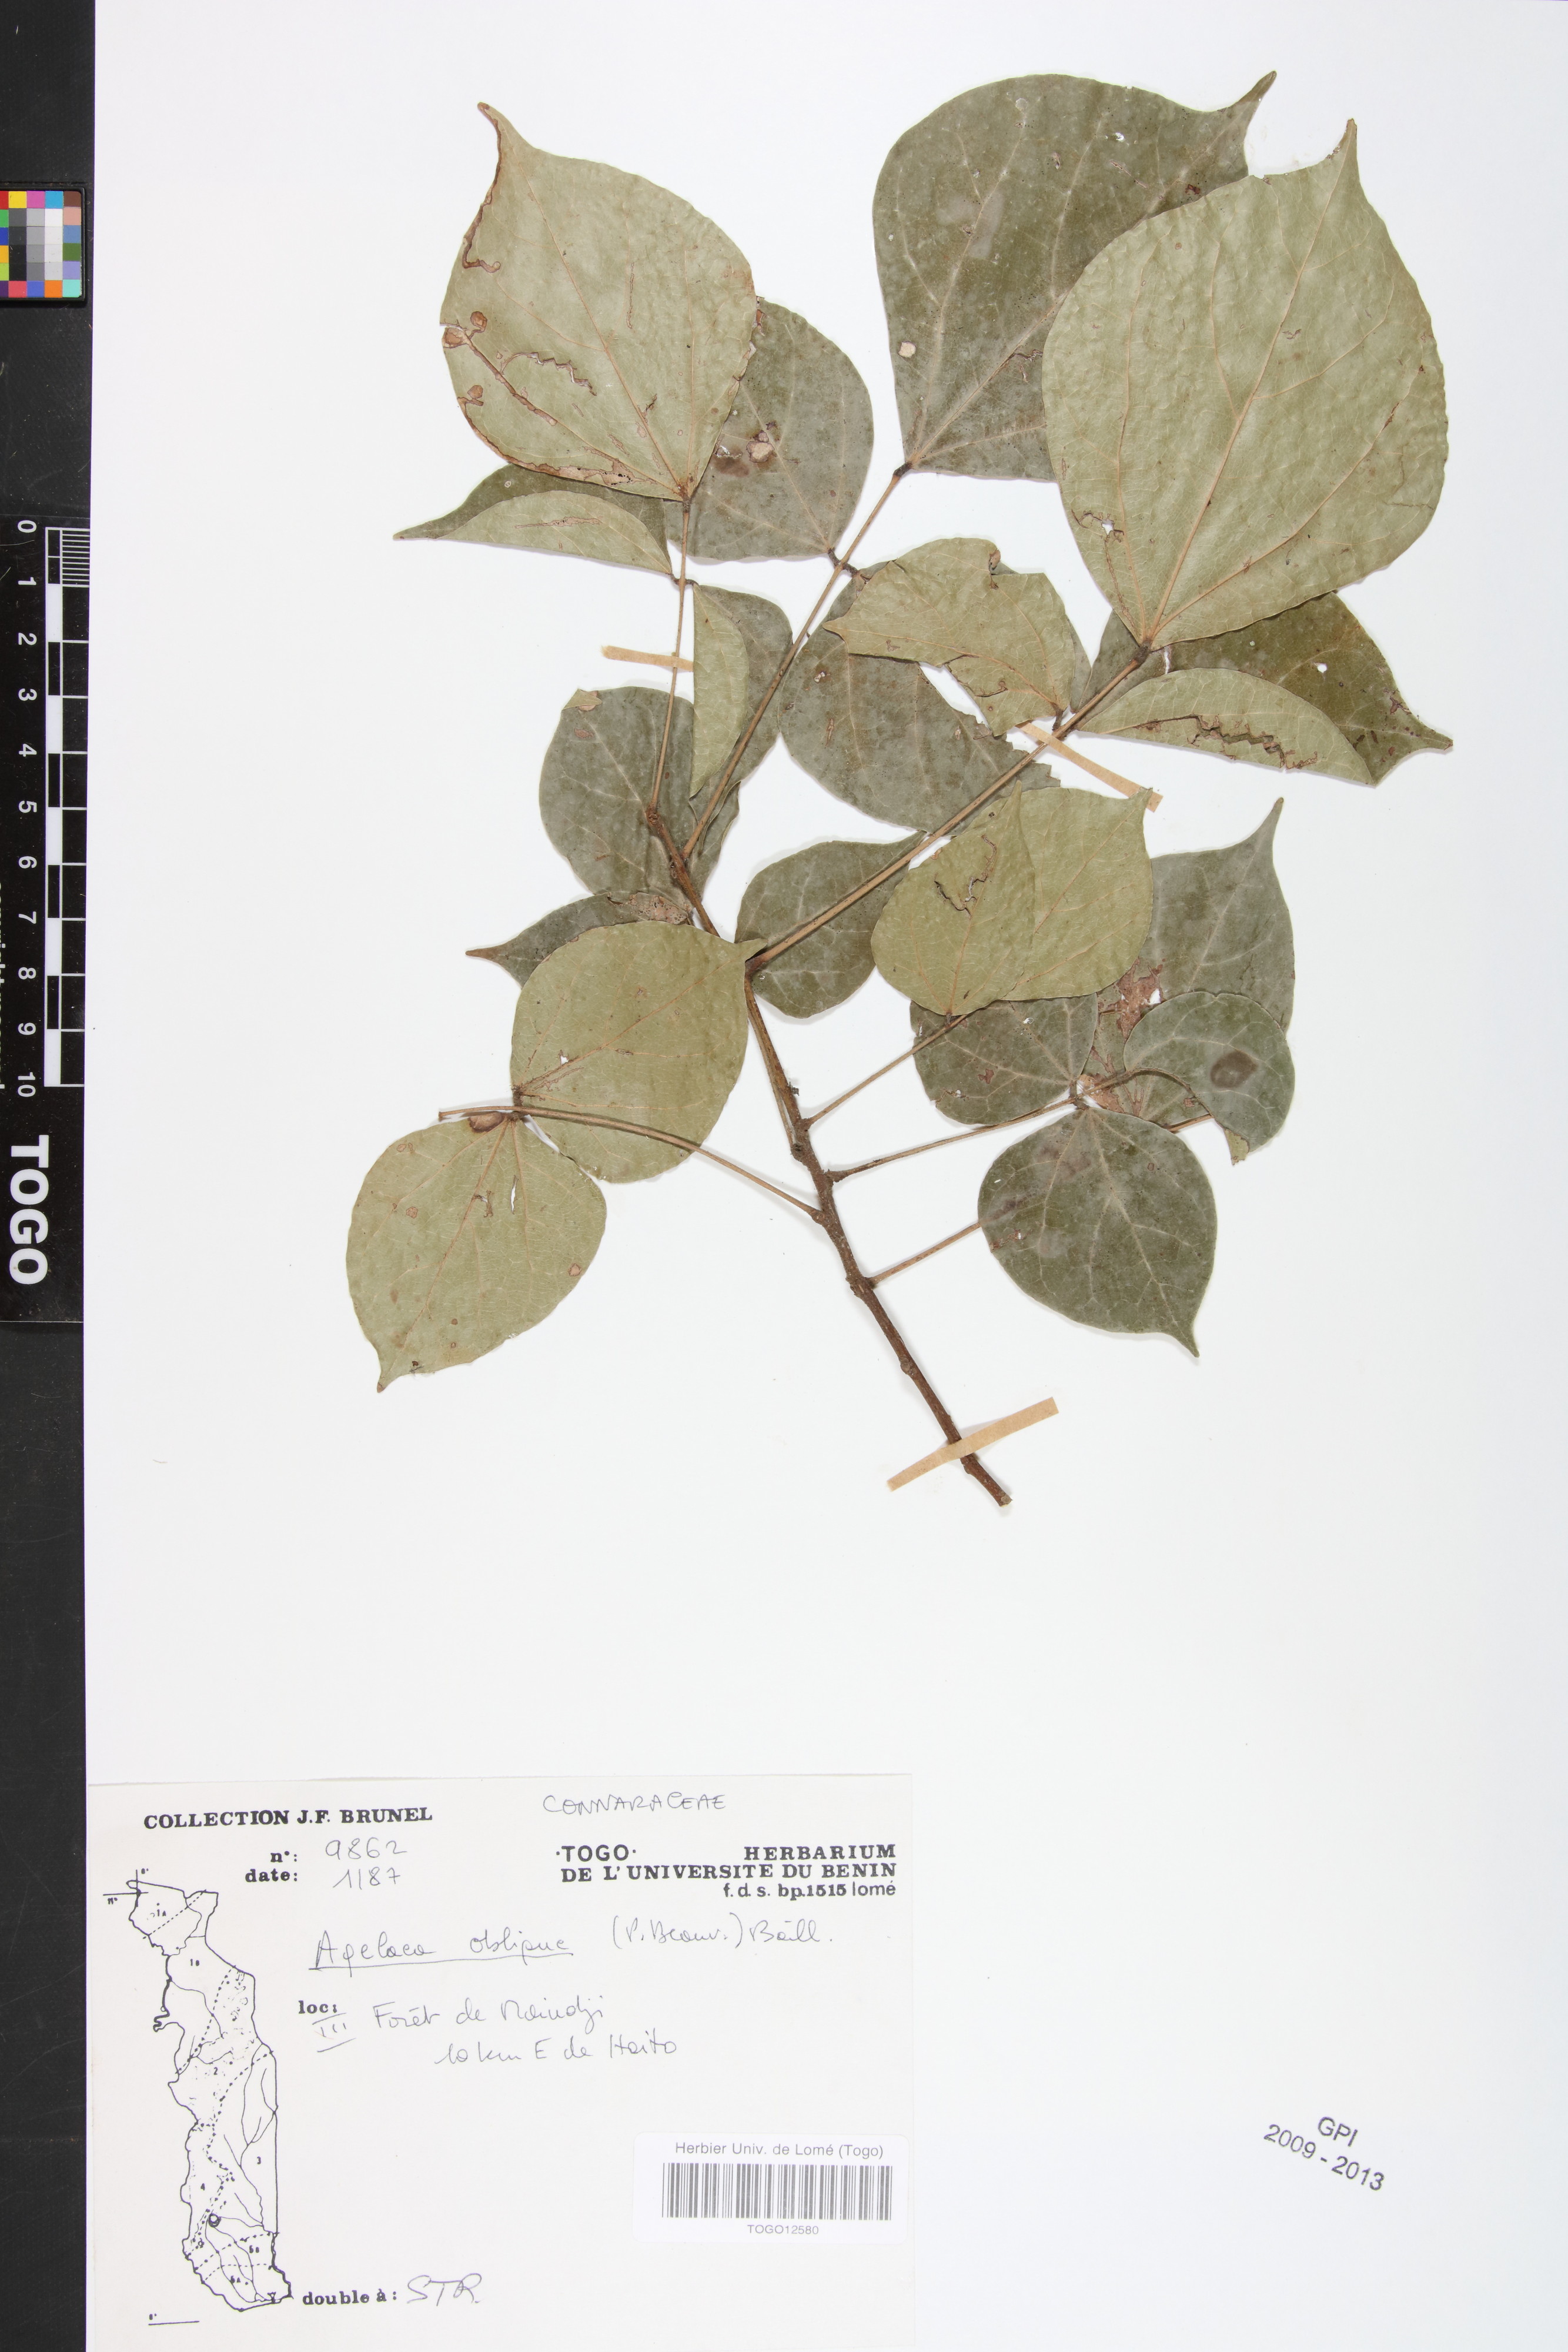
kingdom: Plantae
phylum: Tracheophyta
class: Magnoliopsida
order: Oxalidales
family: Connaraceae
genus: Agelaea
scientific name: Agelaea pentagyna
